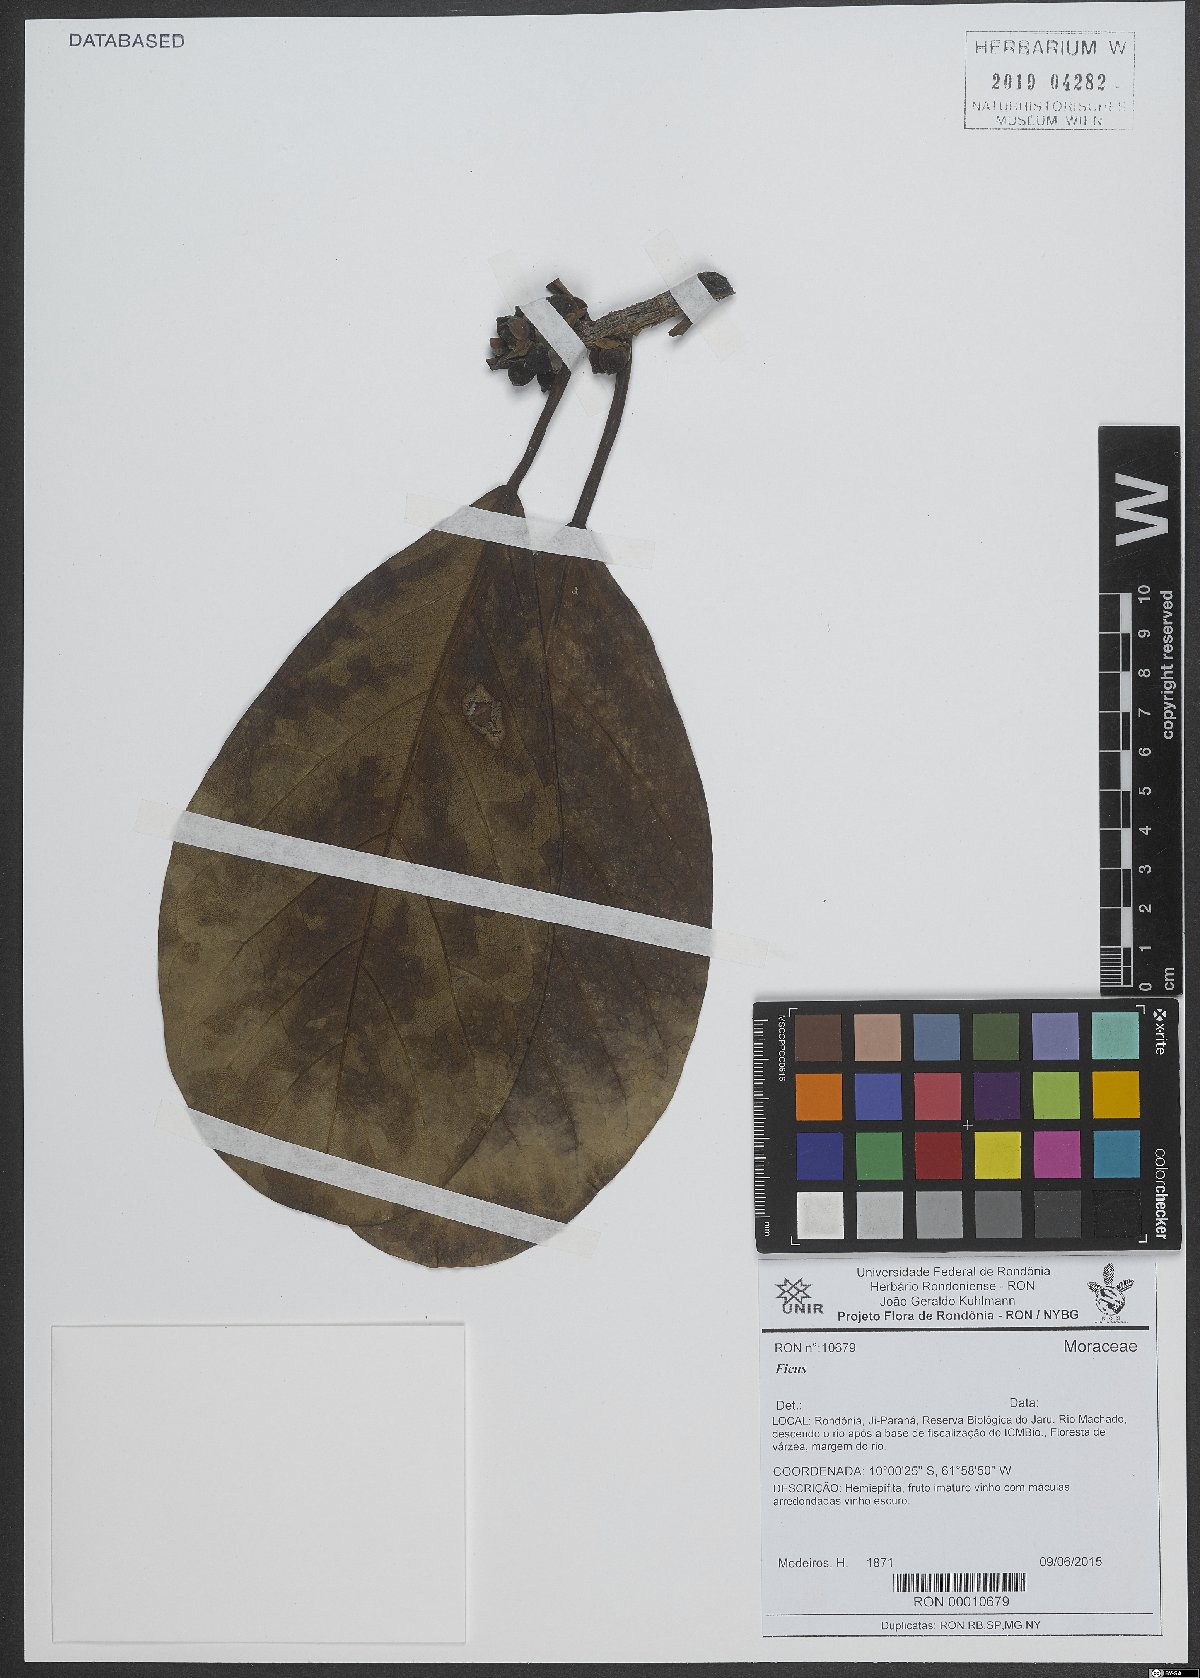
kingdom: Plantae
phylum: Tracheophyta
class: Magnoliopsida
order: Rosales
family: Moraceae
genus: Ficus
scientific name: Ficus
